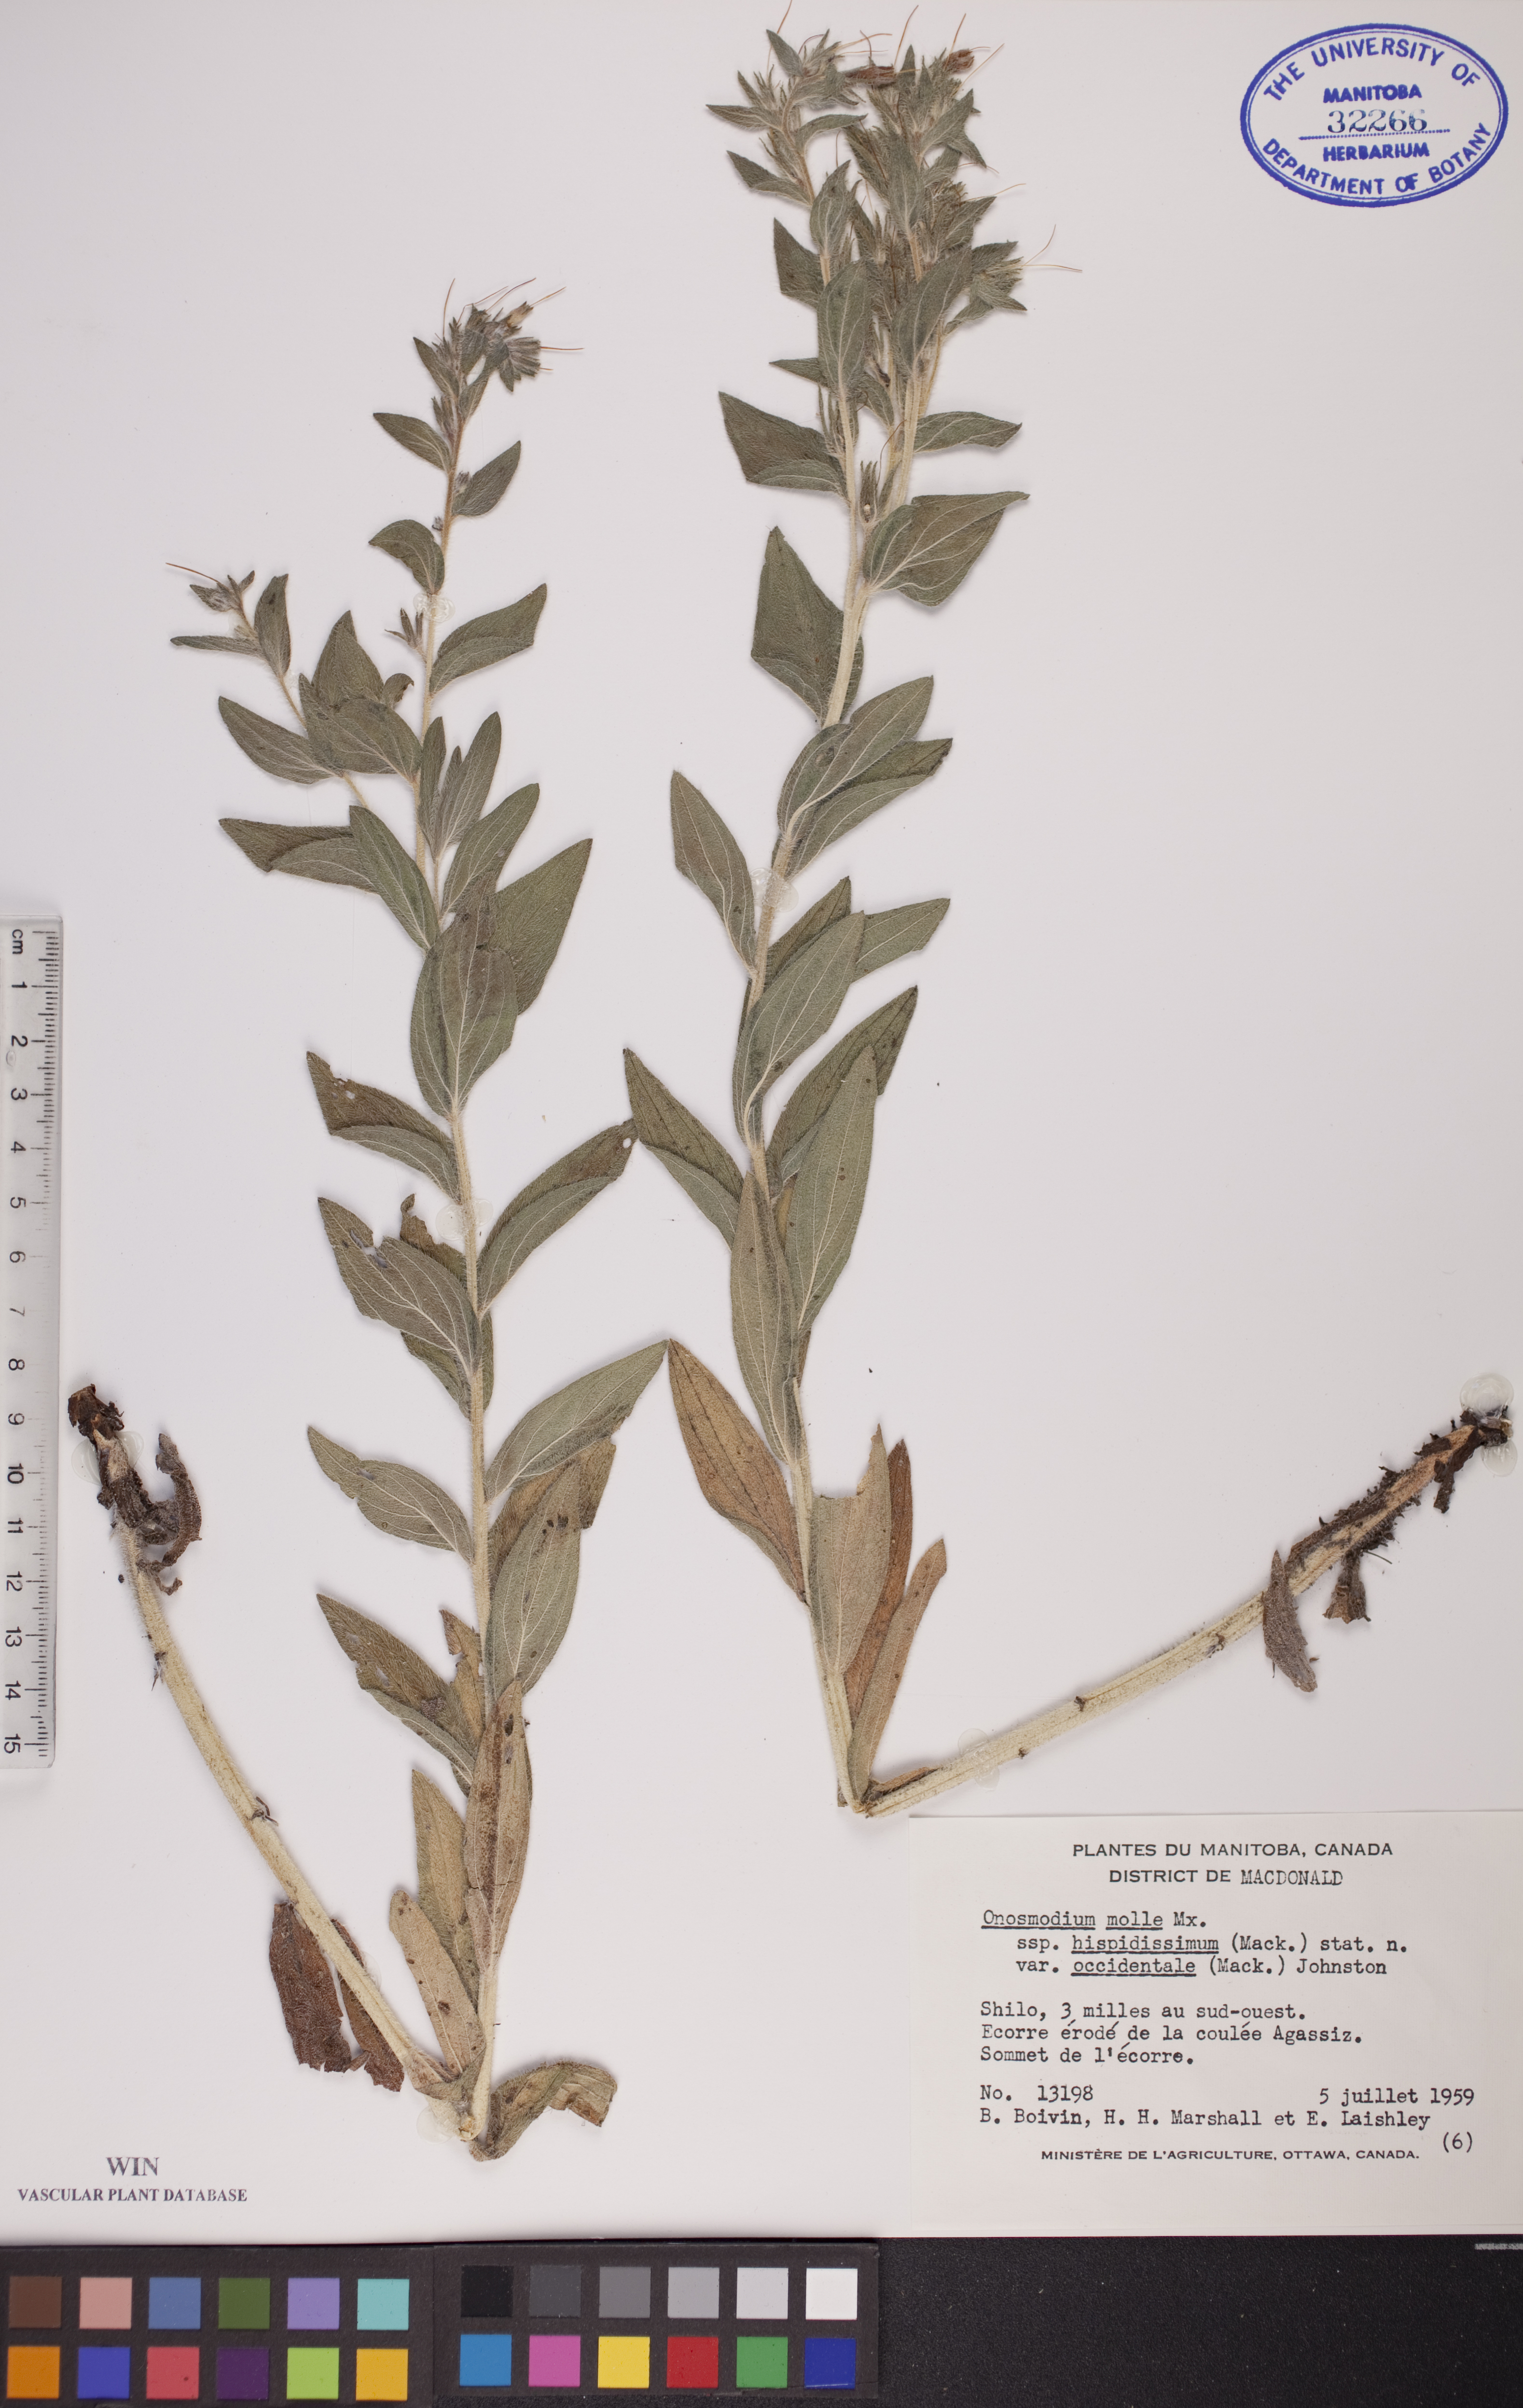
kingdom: Plantae
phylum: Tracheophyta
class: Magnoliopsida
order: Boraginales
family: Boraginaceae
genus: Lithospermum
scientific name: Lithospermum occidentale
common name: Western false gromwell
